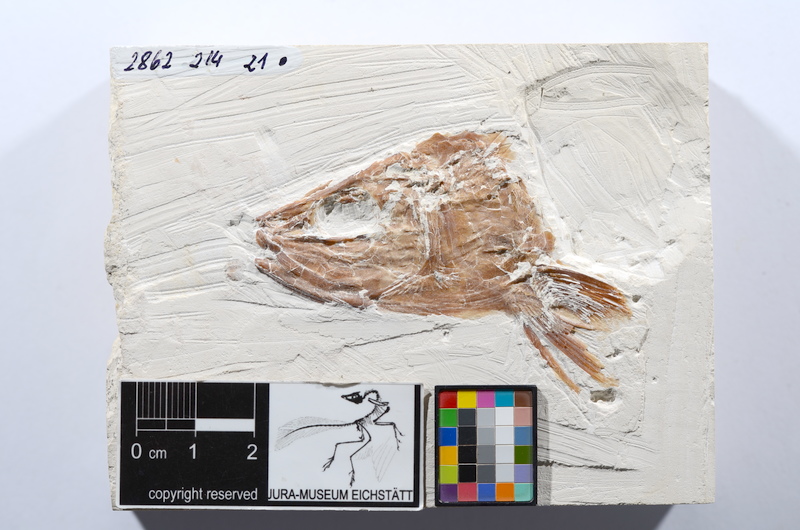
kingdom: Animalia
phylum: Chordata
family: Allothrissopidae
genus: Allothrissops
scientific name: Allothrissops
